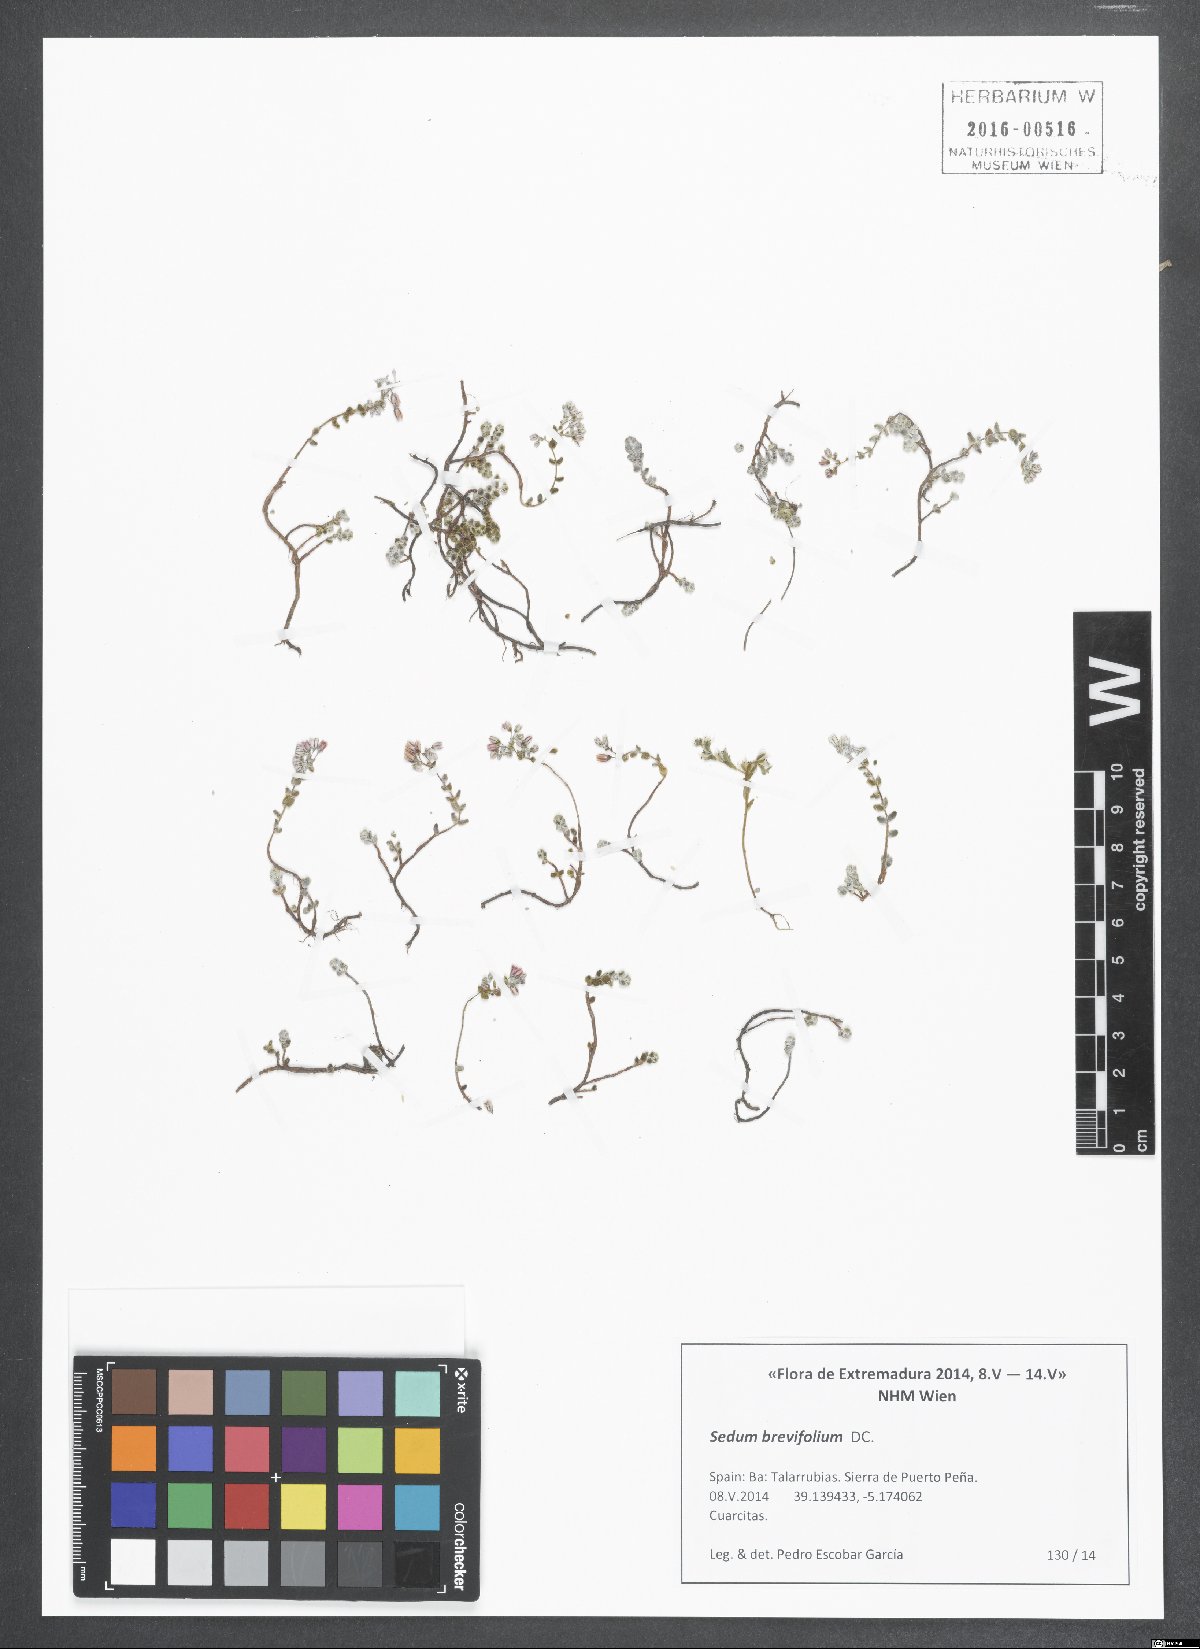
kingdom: Plantae
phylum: Tracheophyta
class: Magnoliopsida
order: Saxifragales
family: Crassulaceae
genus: Sedum
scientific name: Sedum brevifolium
